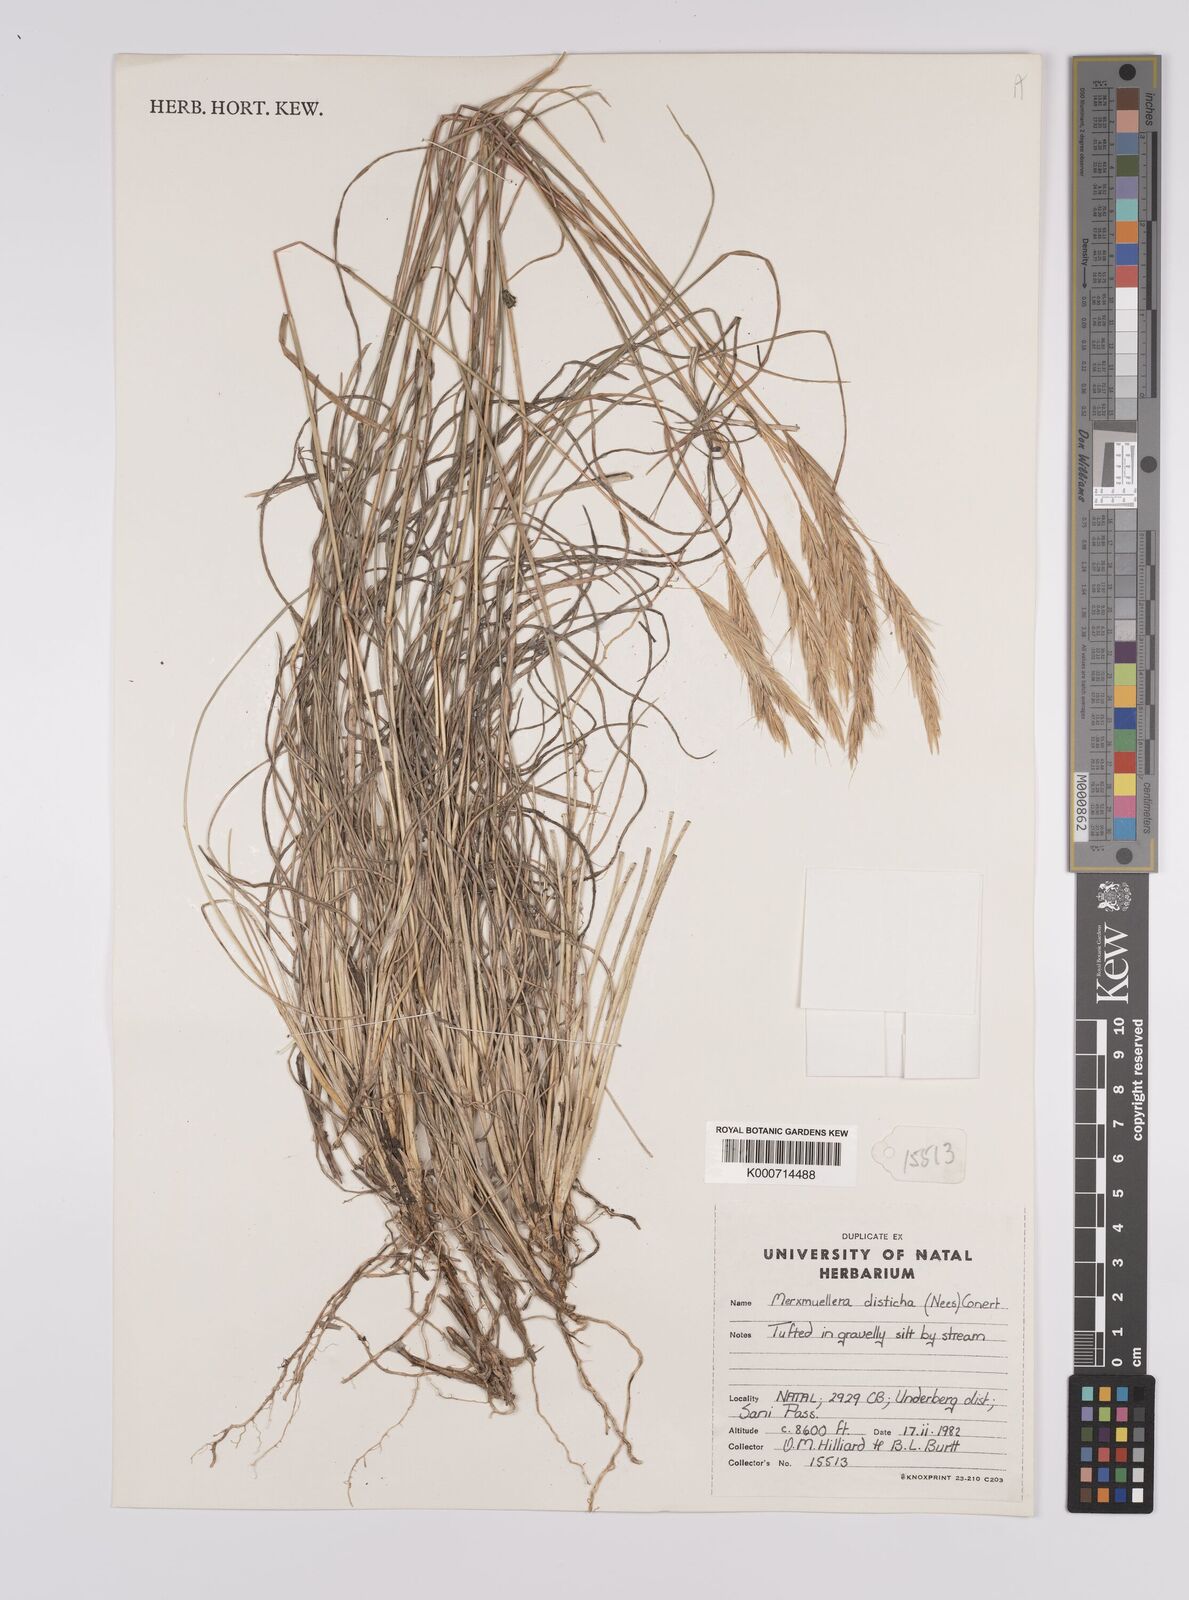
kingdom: Plantae
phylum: Tracheophyta
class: Liliopsida
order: Poales
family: Poaceae
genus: Tenaxia
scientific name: Tenaxia disticha
